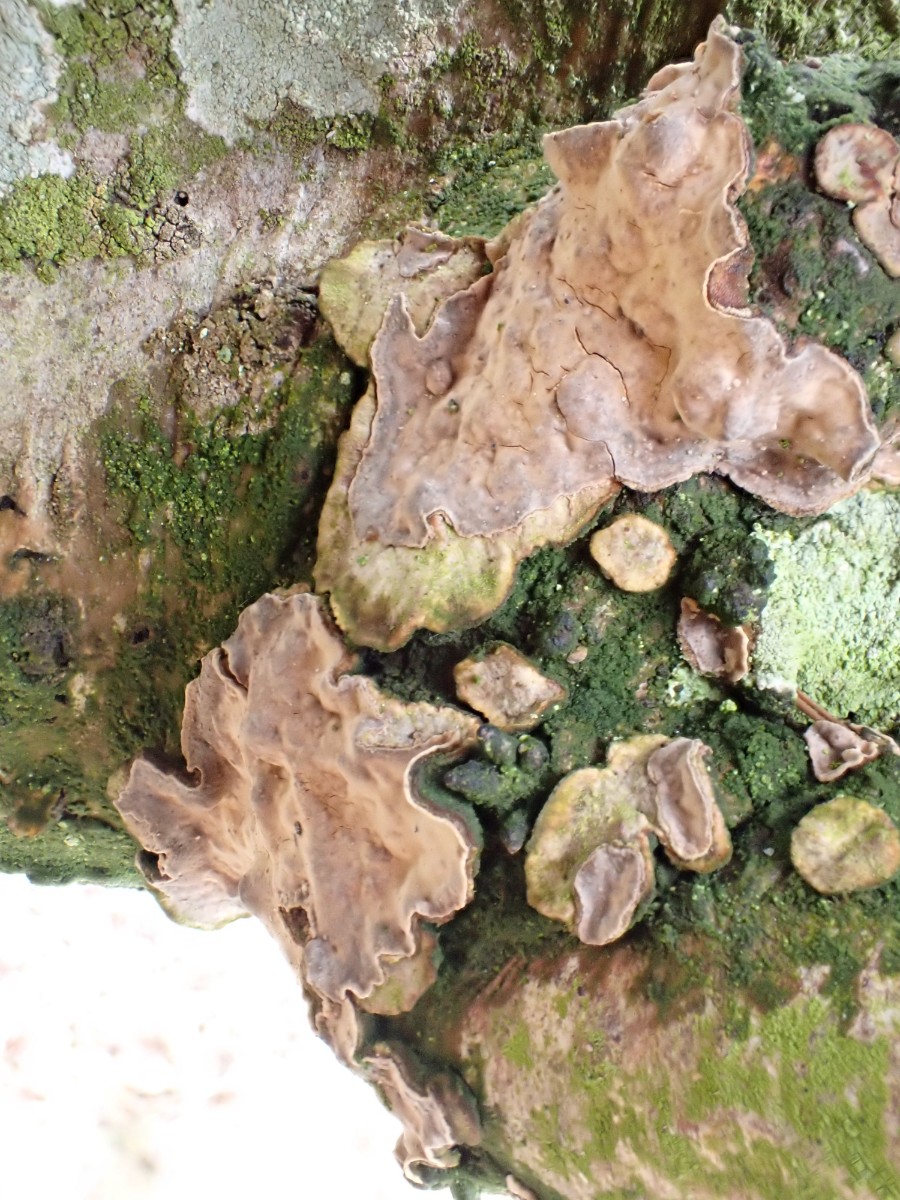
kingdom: Fungi
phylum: Basidiomycota
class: Agaricomycetes
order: Corticiales
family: Corticiaceae
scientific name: Corticiaceae
